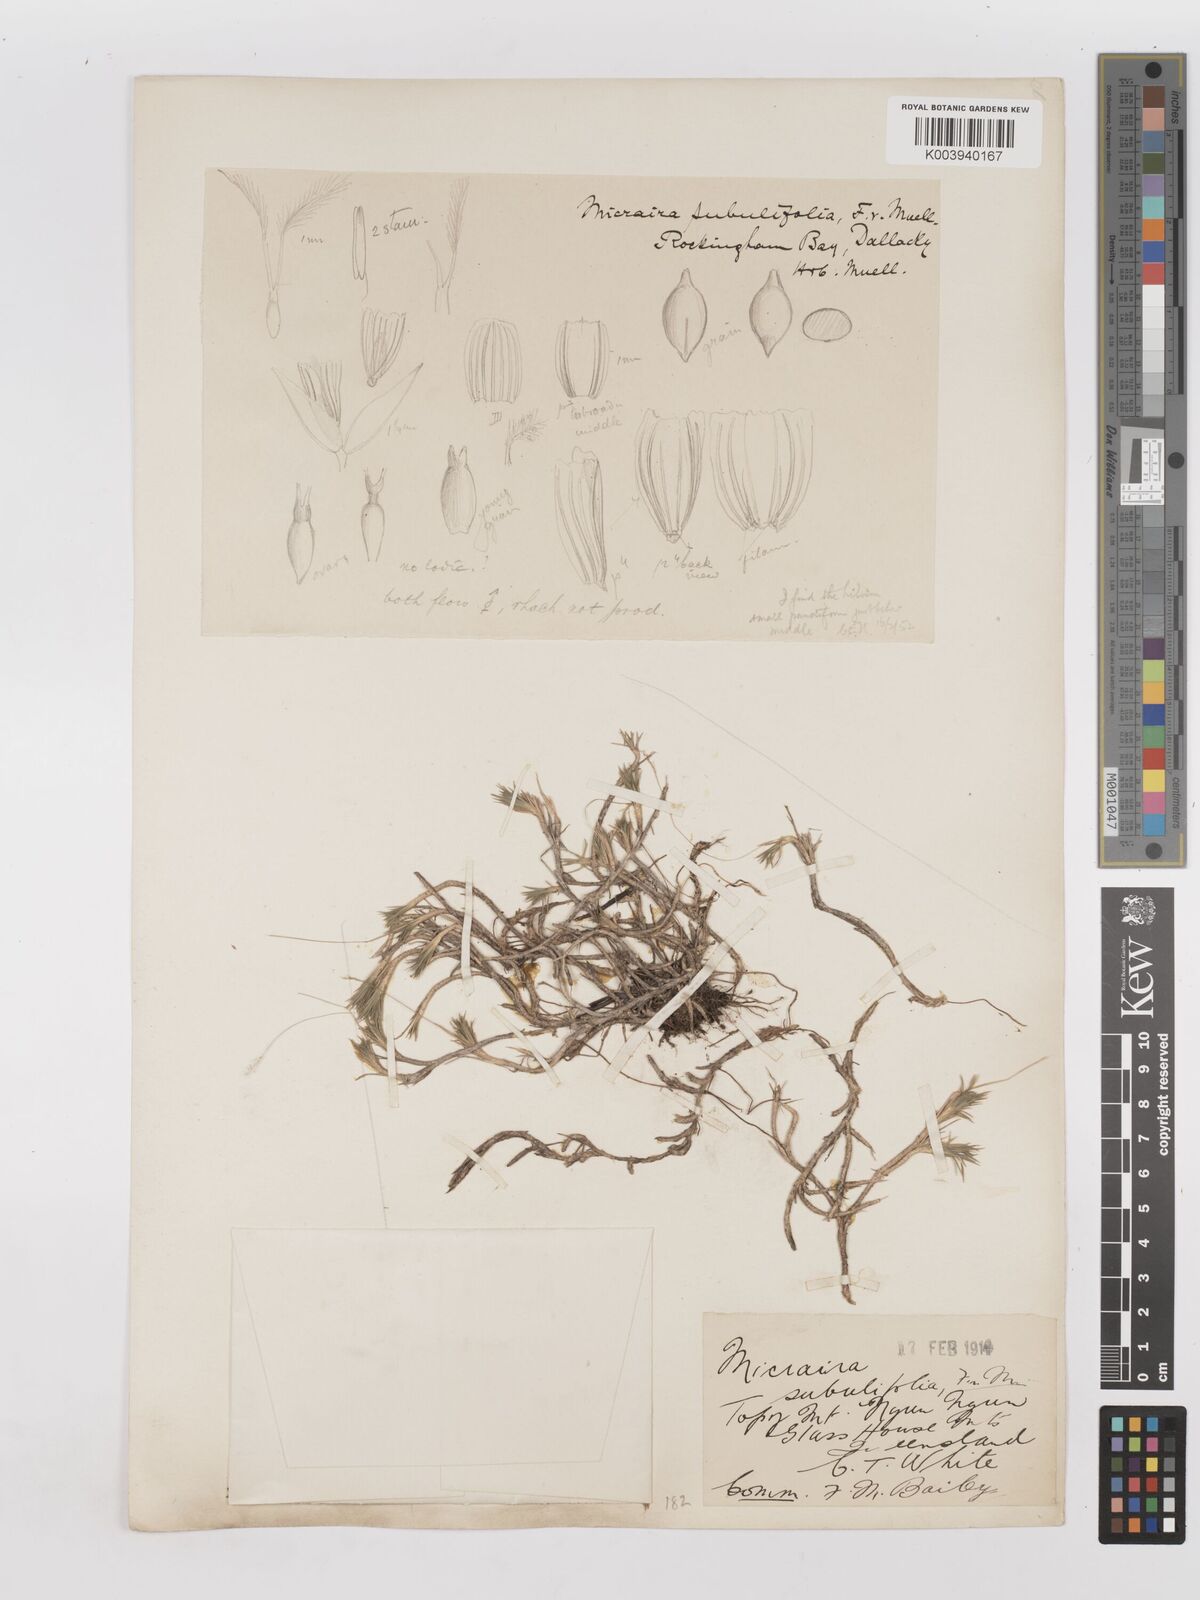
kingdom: Plantae
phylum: Tracheophyta
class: Liliopsida
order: Poales
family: Poaceae
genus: Micraira
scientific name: Micraira subulifolia
